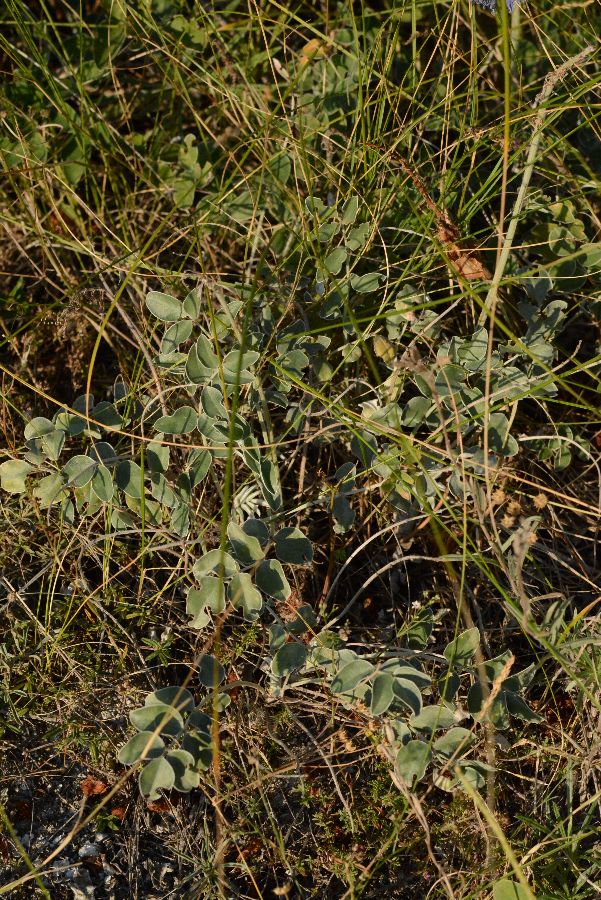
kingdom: Plantae
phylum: Tracheophyta
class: Magnoliopsida
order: Fabales
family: Fabaceae
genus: Hedysarum
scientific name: Hedysarum grandiflorum
